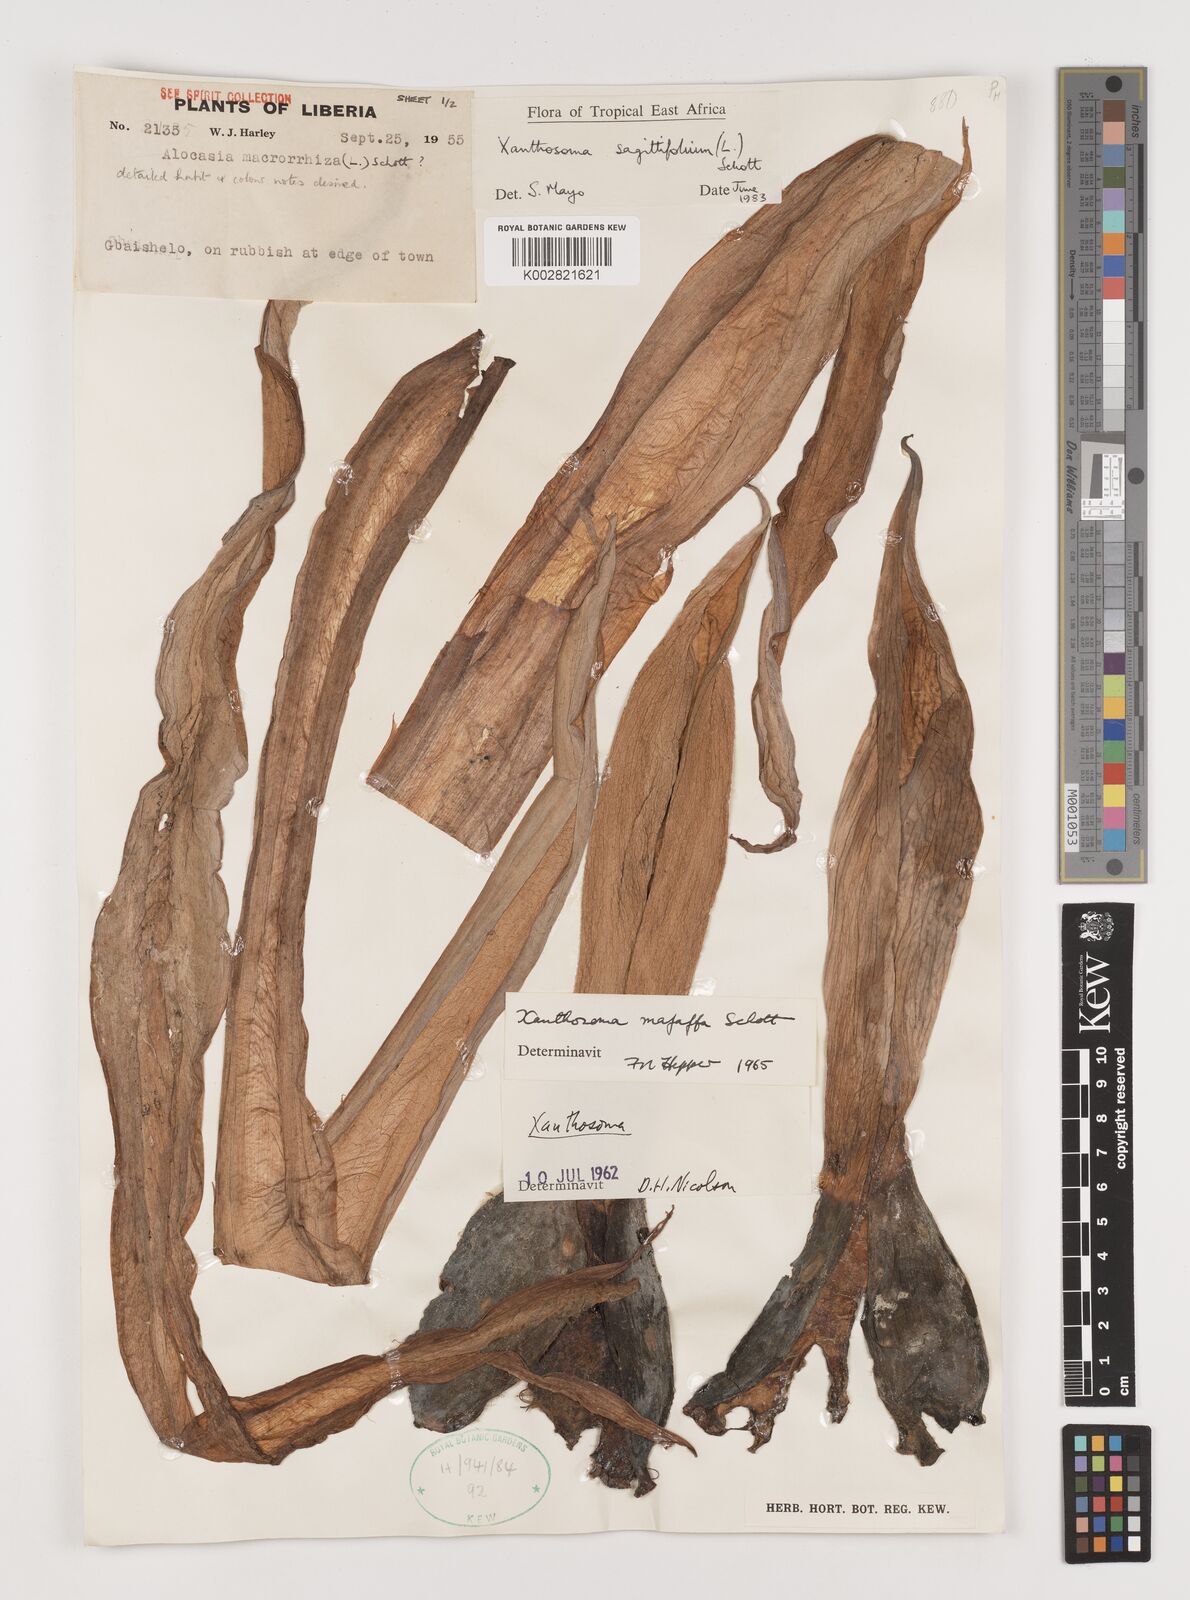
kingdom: Plantae
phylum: Tracheophyta
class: Liliopsida
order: Alismatales
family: Araceae
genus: Xanthosoma
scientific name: Xanthosoma sagittifolium
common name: Arrowleaf elephant's ear
